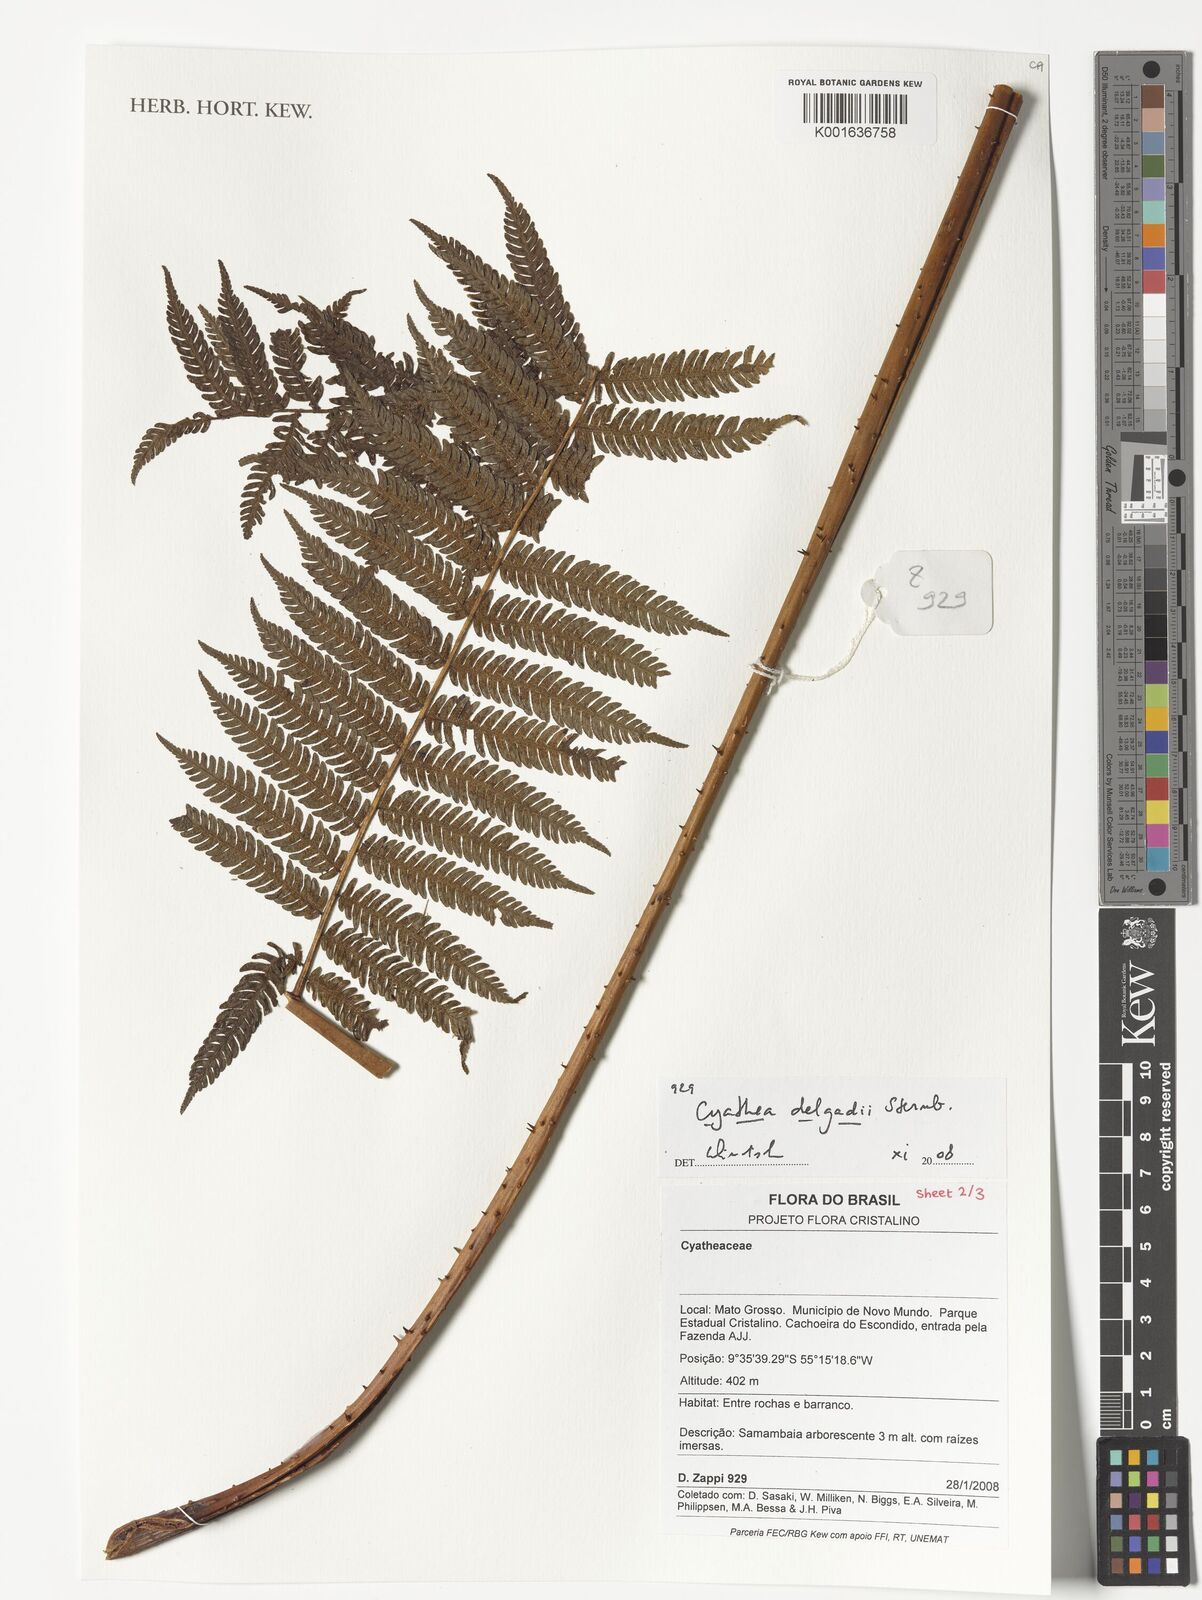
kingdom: Plantae
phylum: Tracheophyta
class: Polypodiopsida
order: Cyatheales
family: Cyatheaceae
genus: Cyathea
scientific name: Cyathea delgadii
